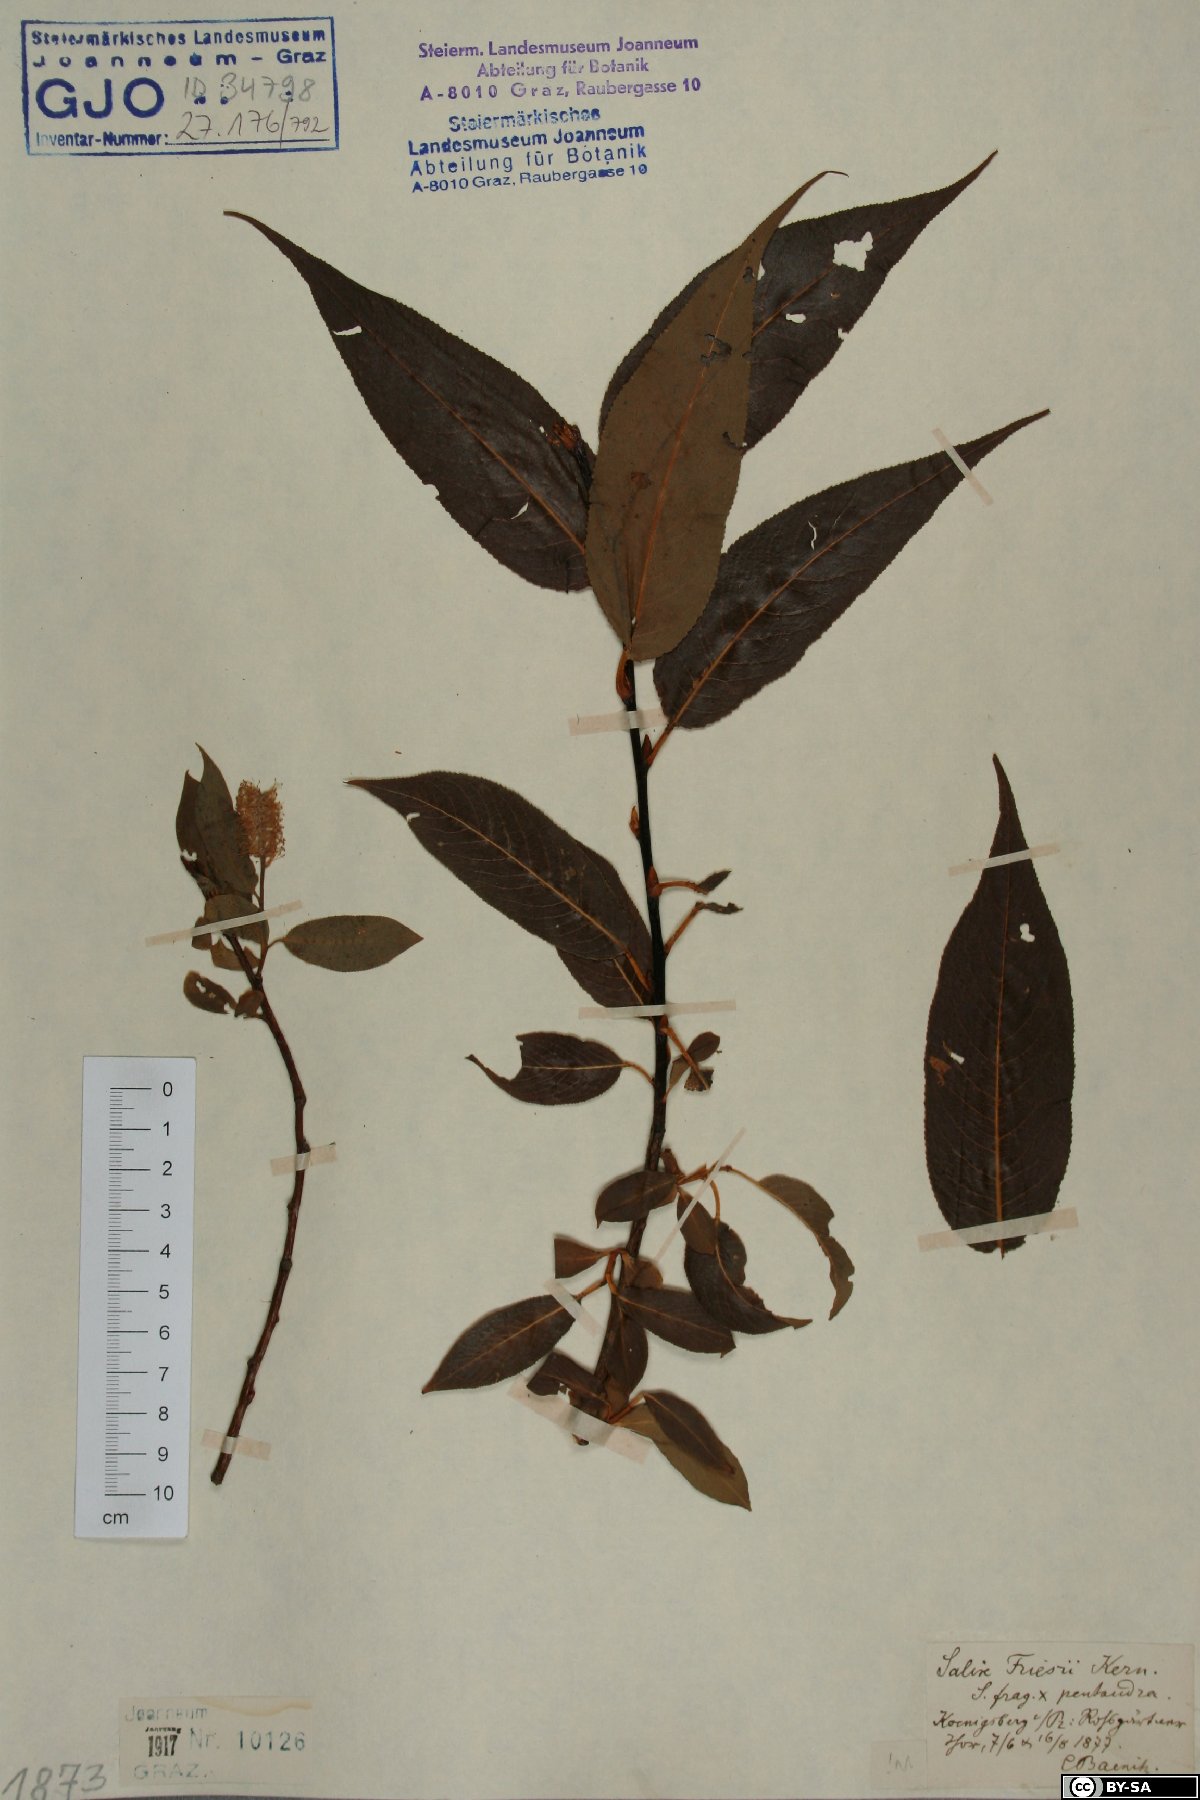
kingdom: Plantae
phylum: Tracheophyta
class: Magnoliopsida
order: Malpighiales
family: Salicaceae
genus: Salix
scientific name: Salix pentandra
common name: Bay willow
